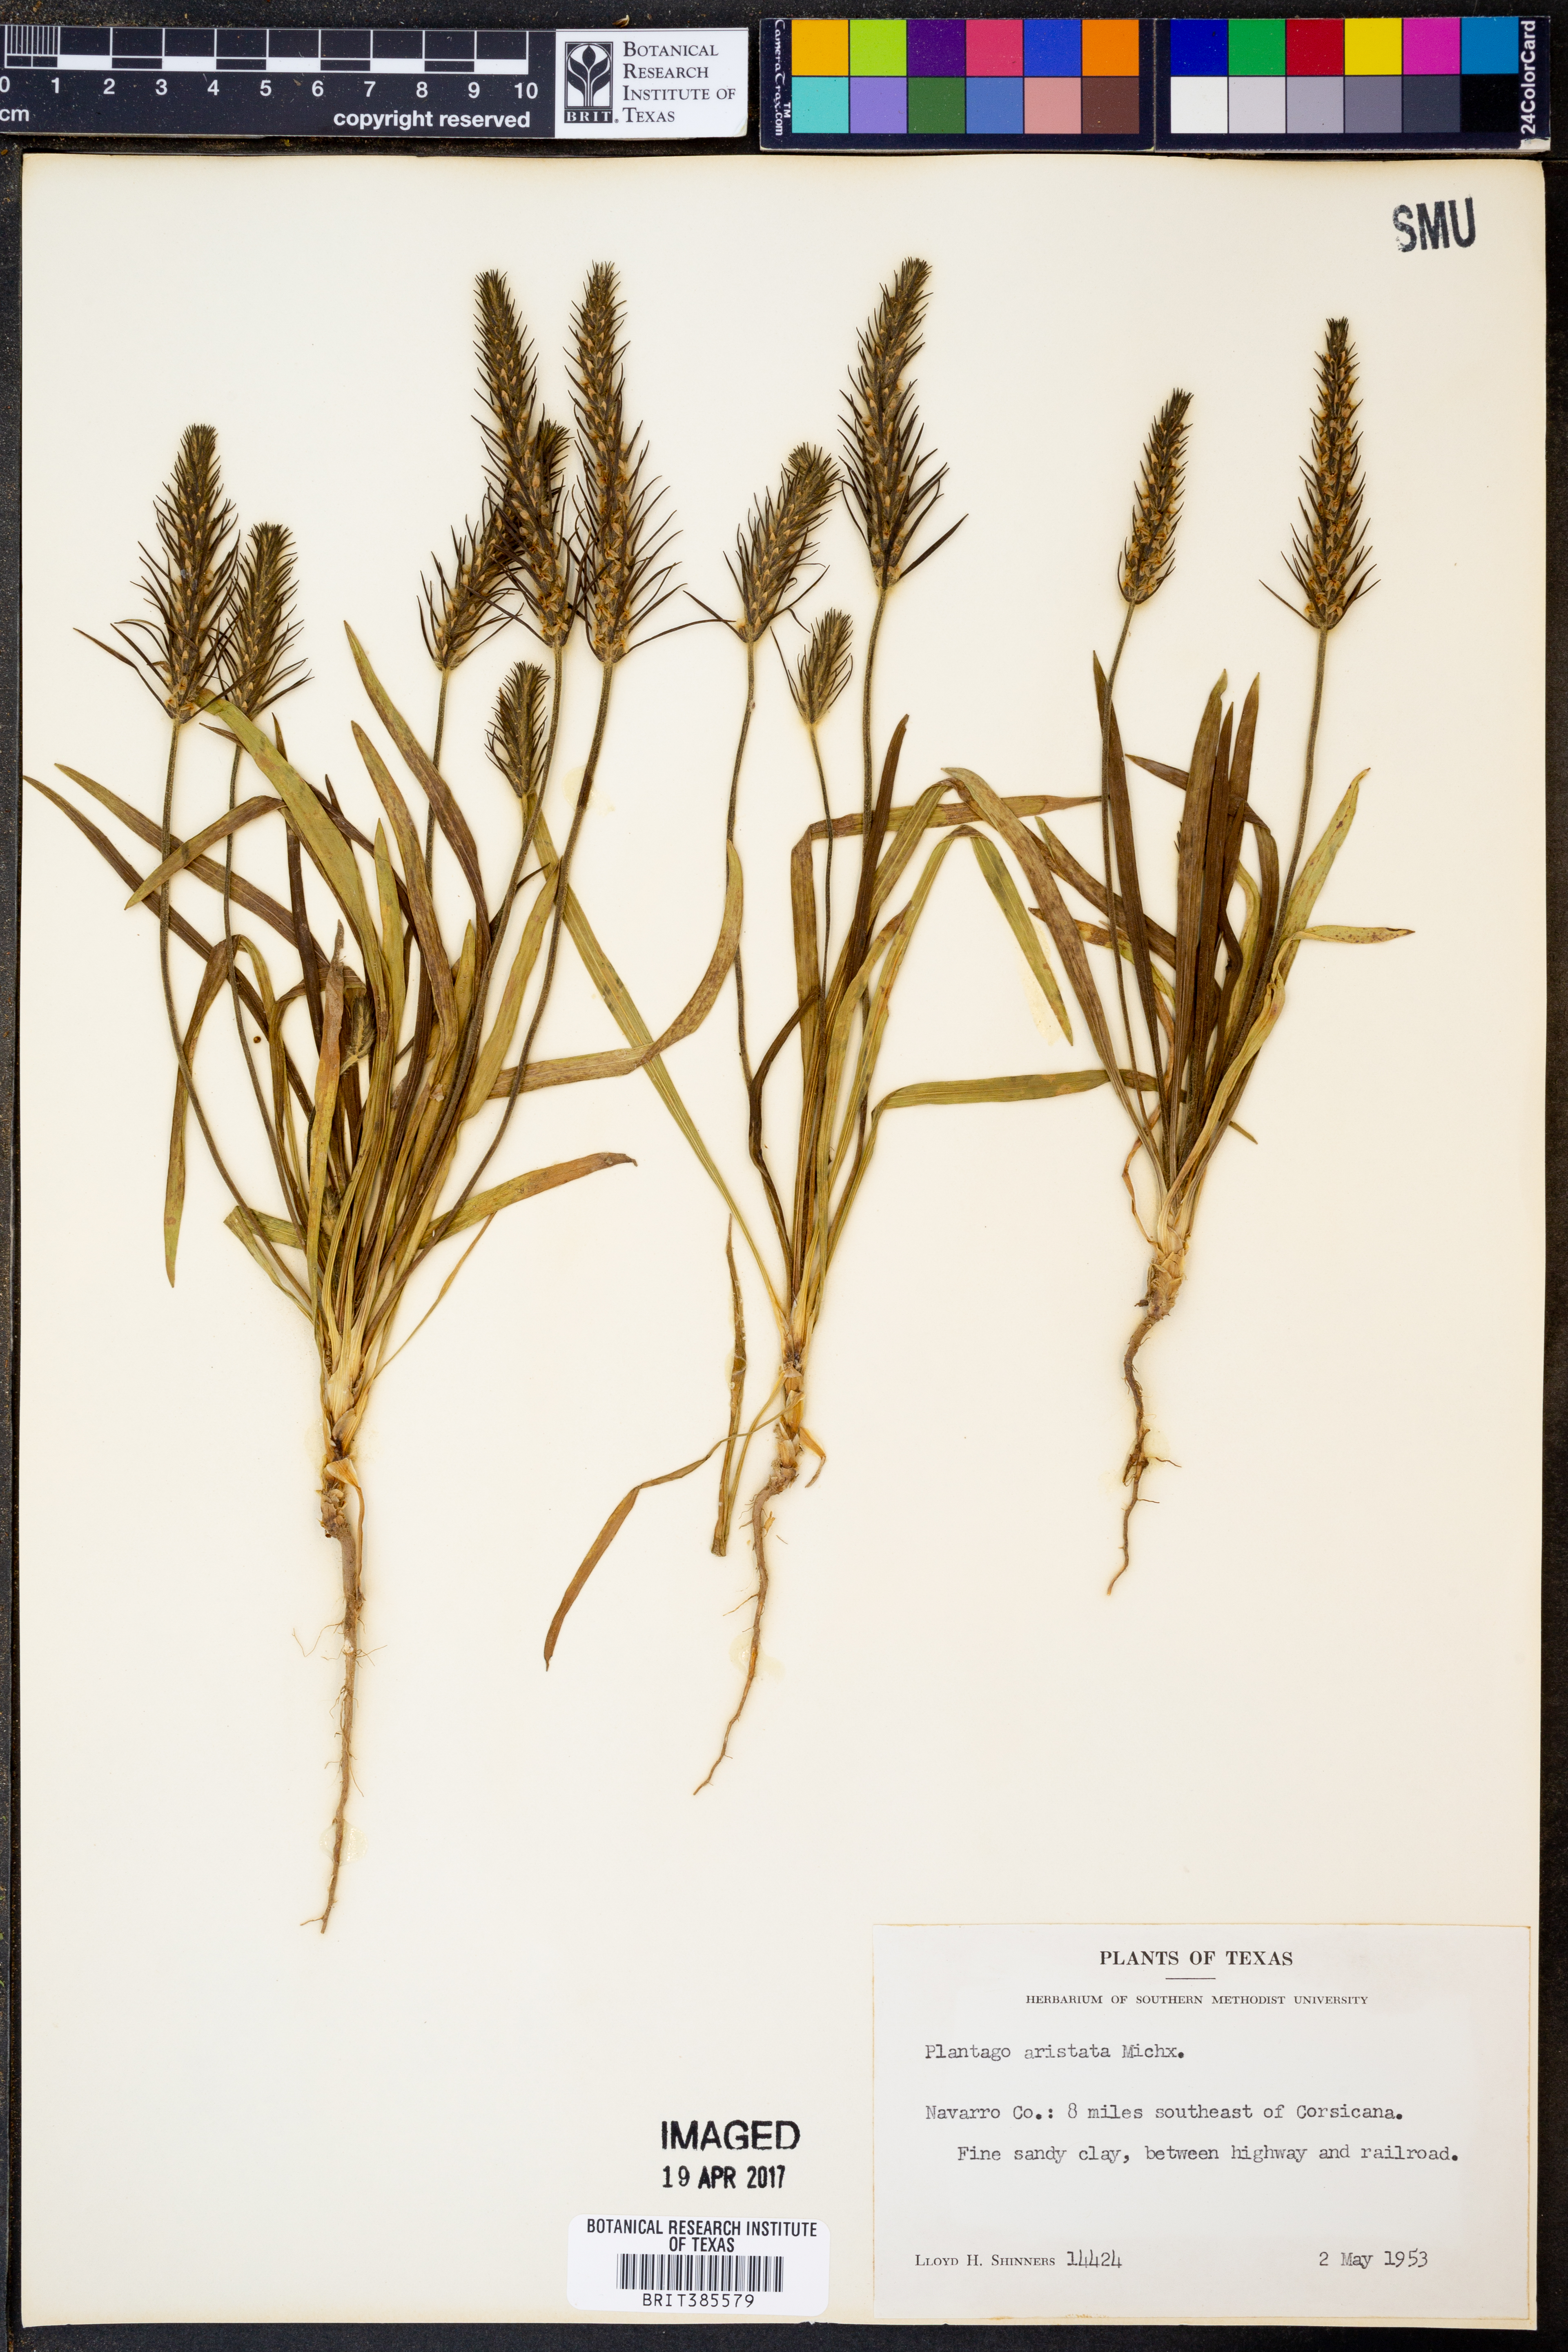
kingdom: Plantae
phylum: Tracheophyta
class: Magnoliopsida
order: Lamiales
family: Plantaginaceae
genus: Plantago
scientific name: Plantago aristata
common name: Bracted plantain
